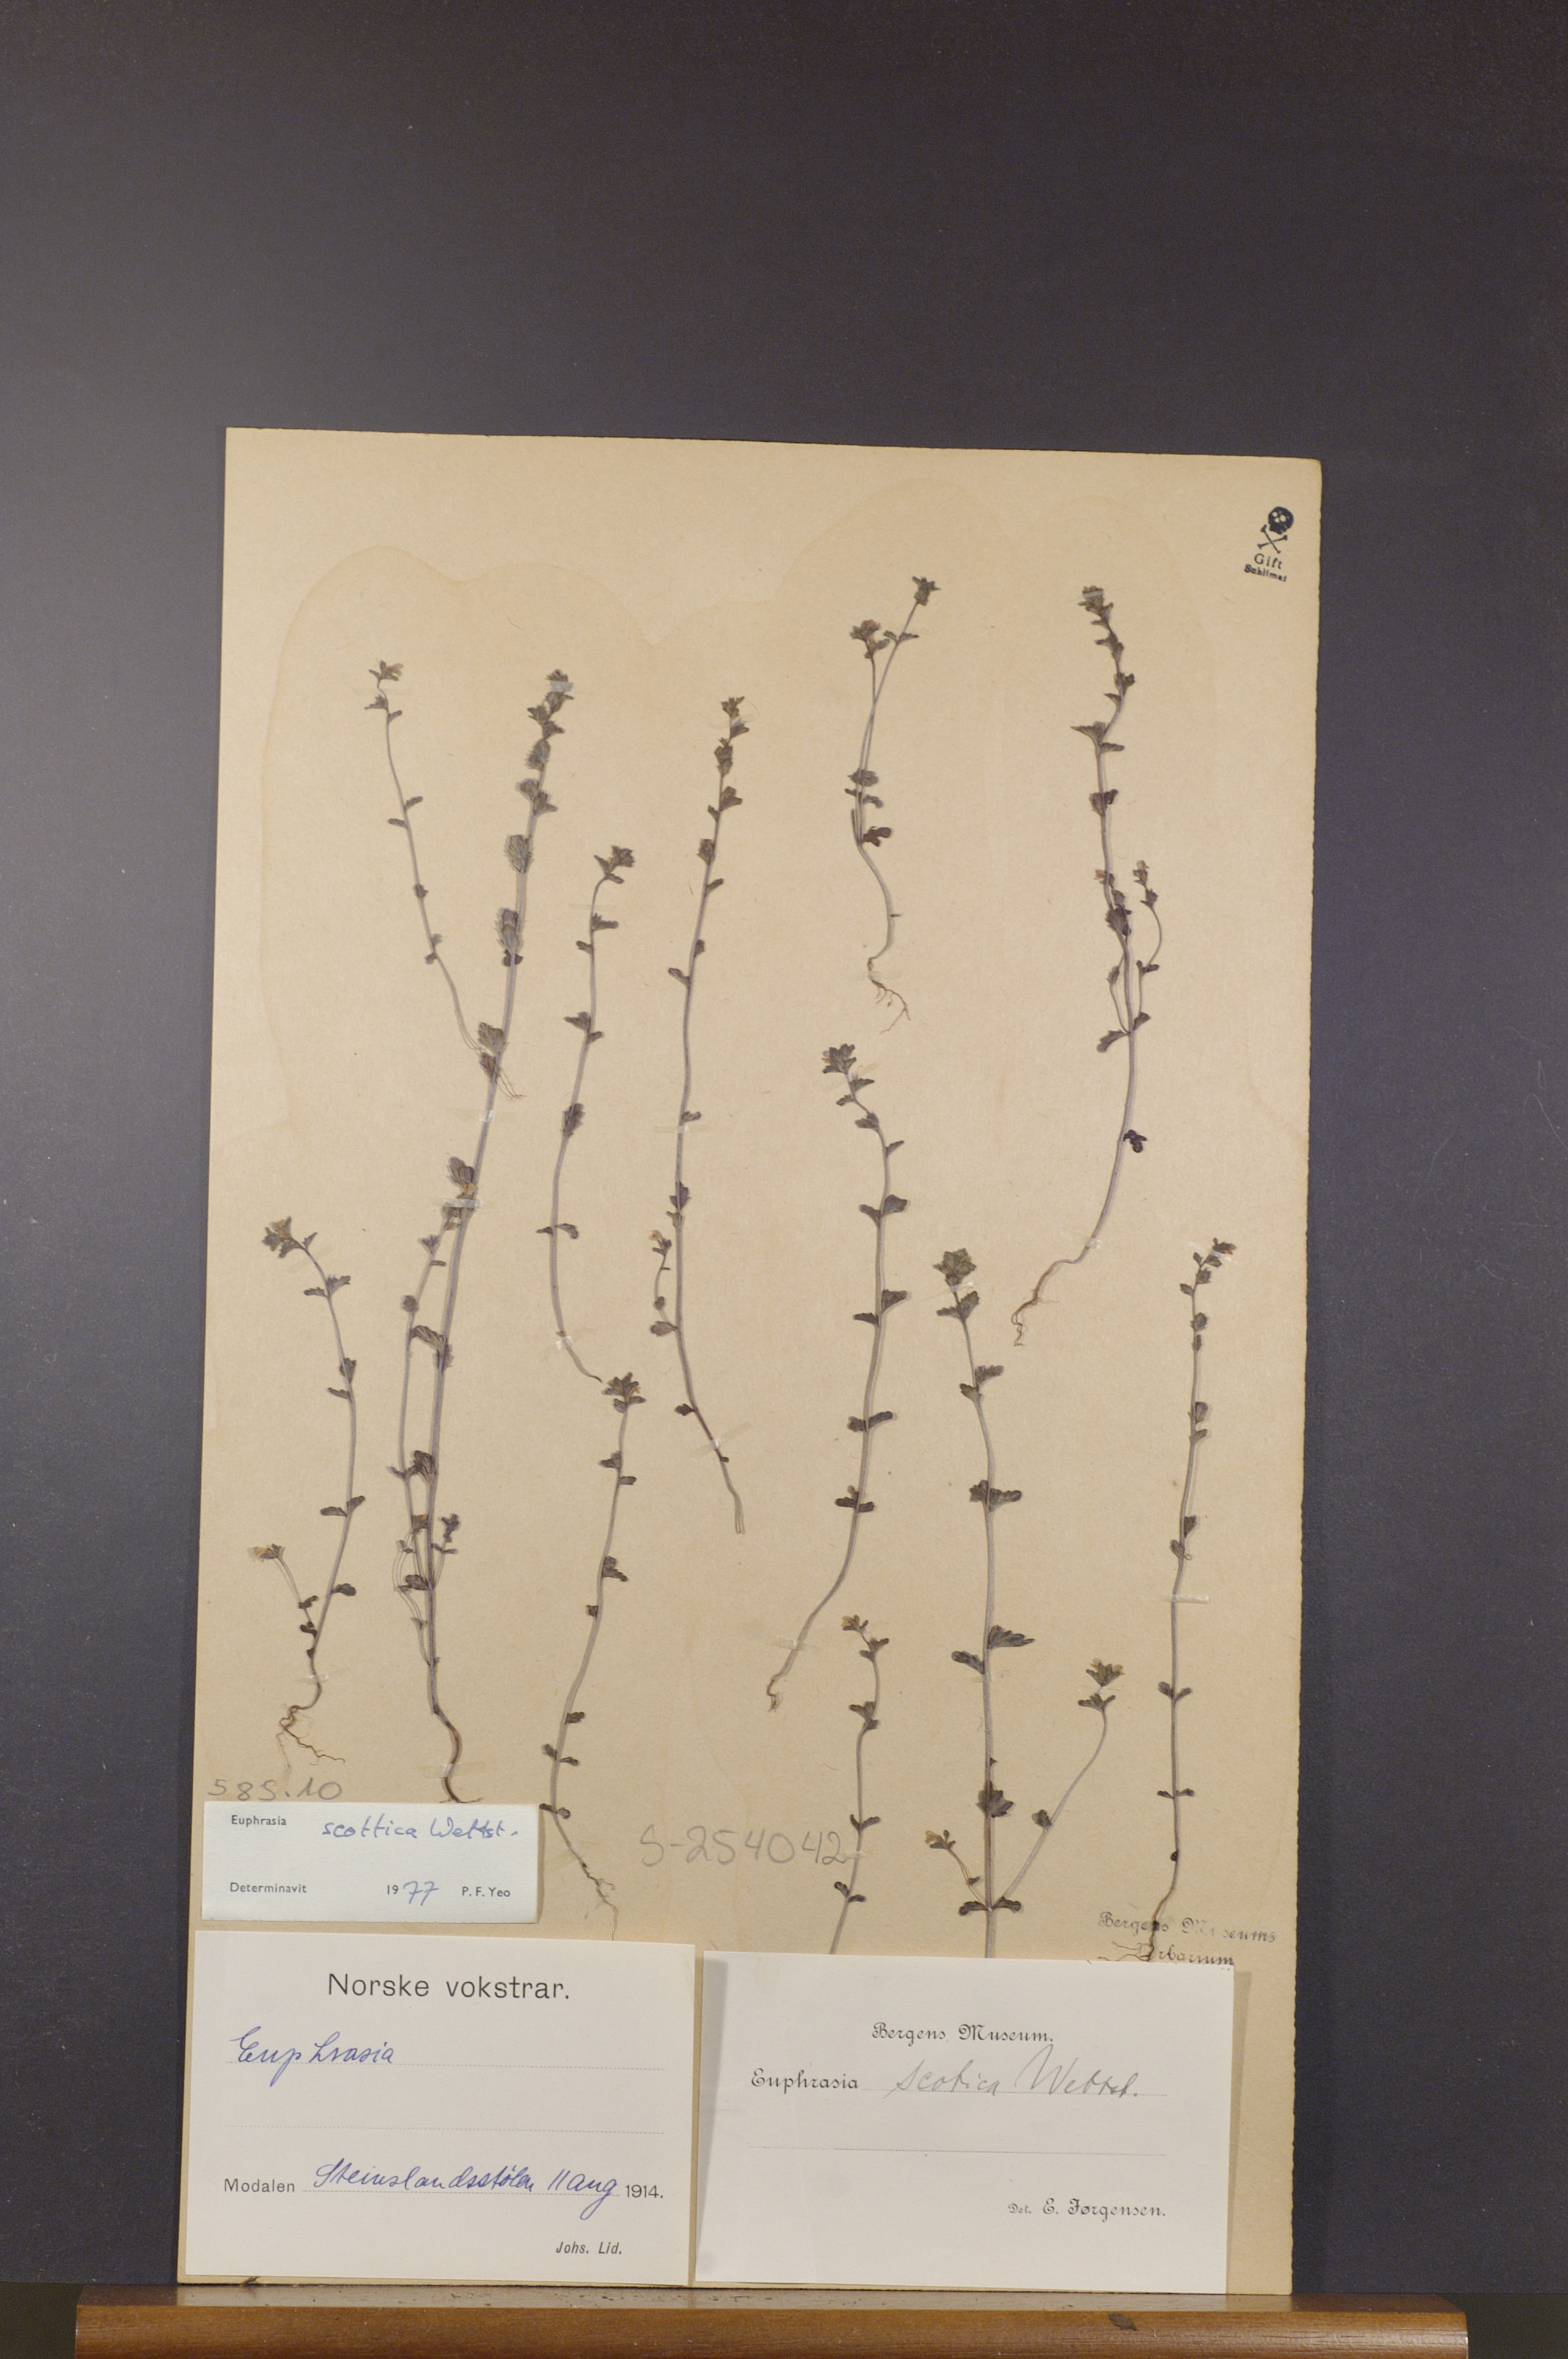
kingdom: Plantae
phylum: Tracheophyta
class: Magnoliopsida
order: Lamiales
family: Orobanchaceae
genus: Euphrasia
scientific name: Euphrasia scottica
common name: Slender scottish eyebright
